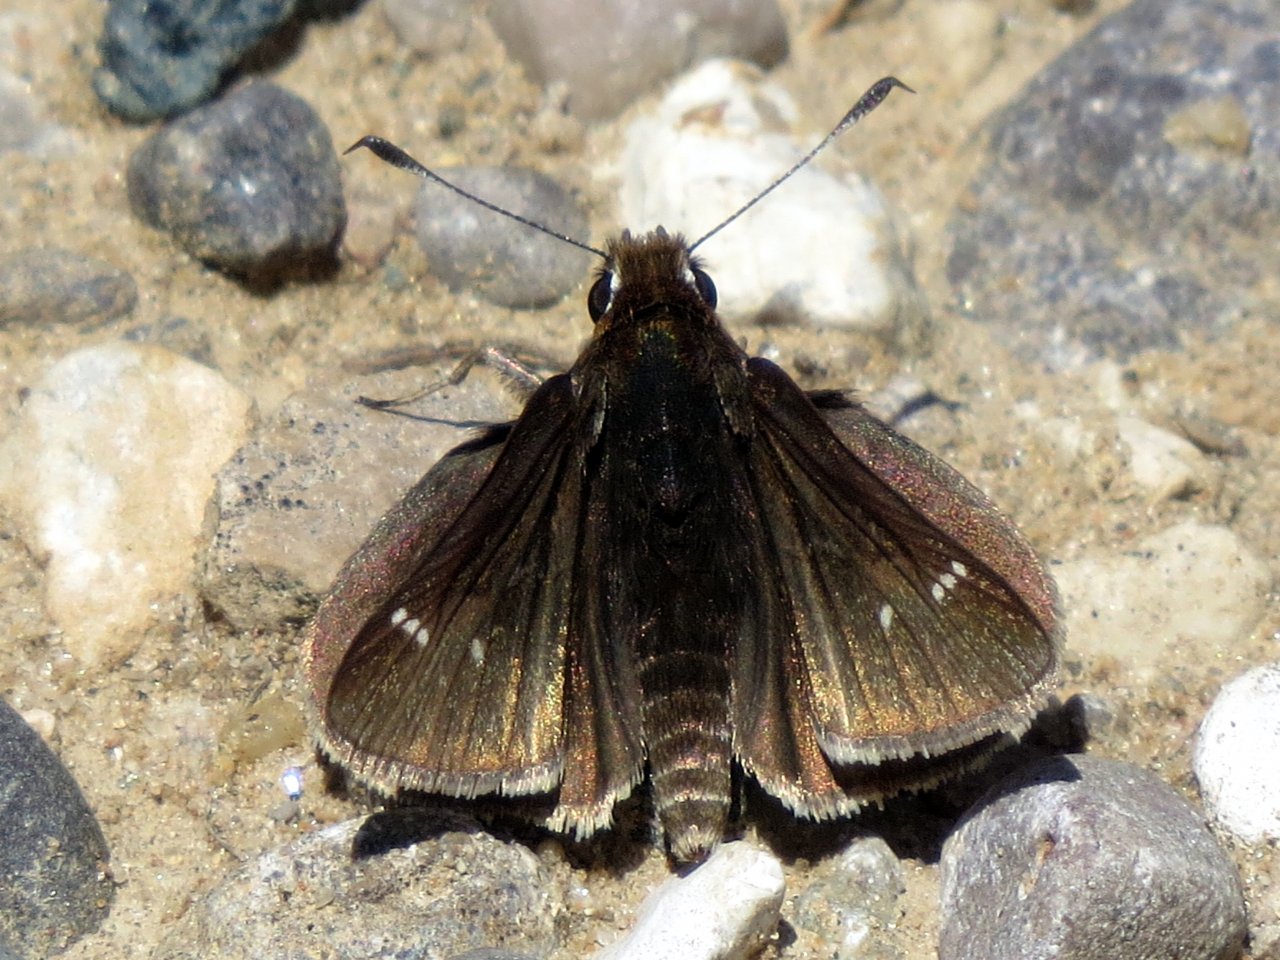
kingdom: Animalia
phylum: Arthropoda
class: Insecta
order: Lepidoptera
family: Hesperiidae
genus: Atrytonopsis
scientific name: Atrytonopsis hianna
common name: Dusted Skipper
